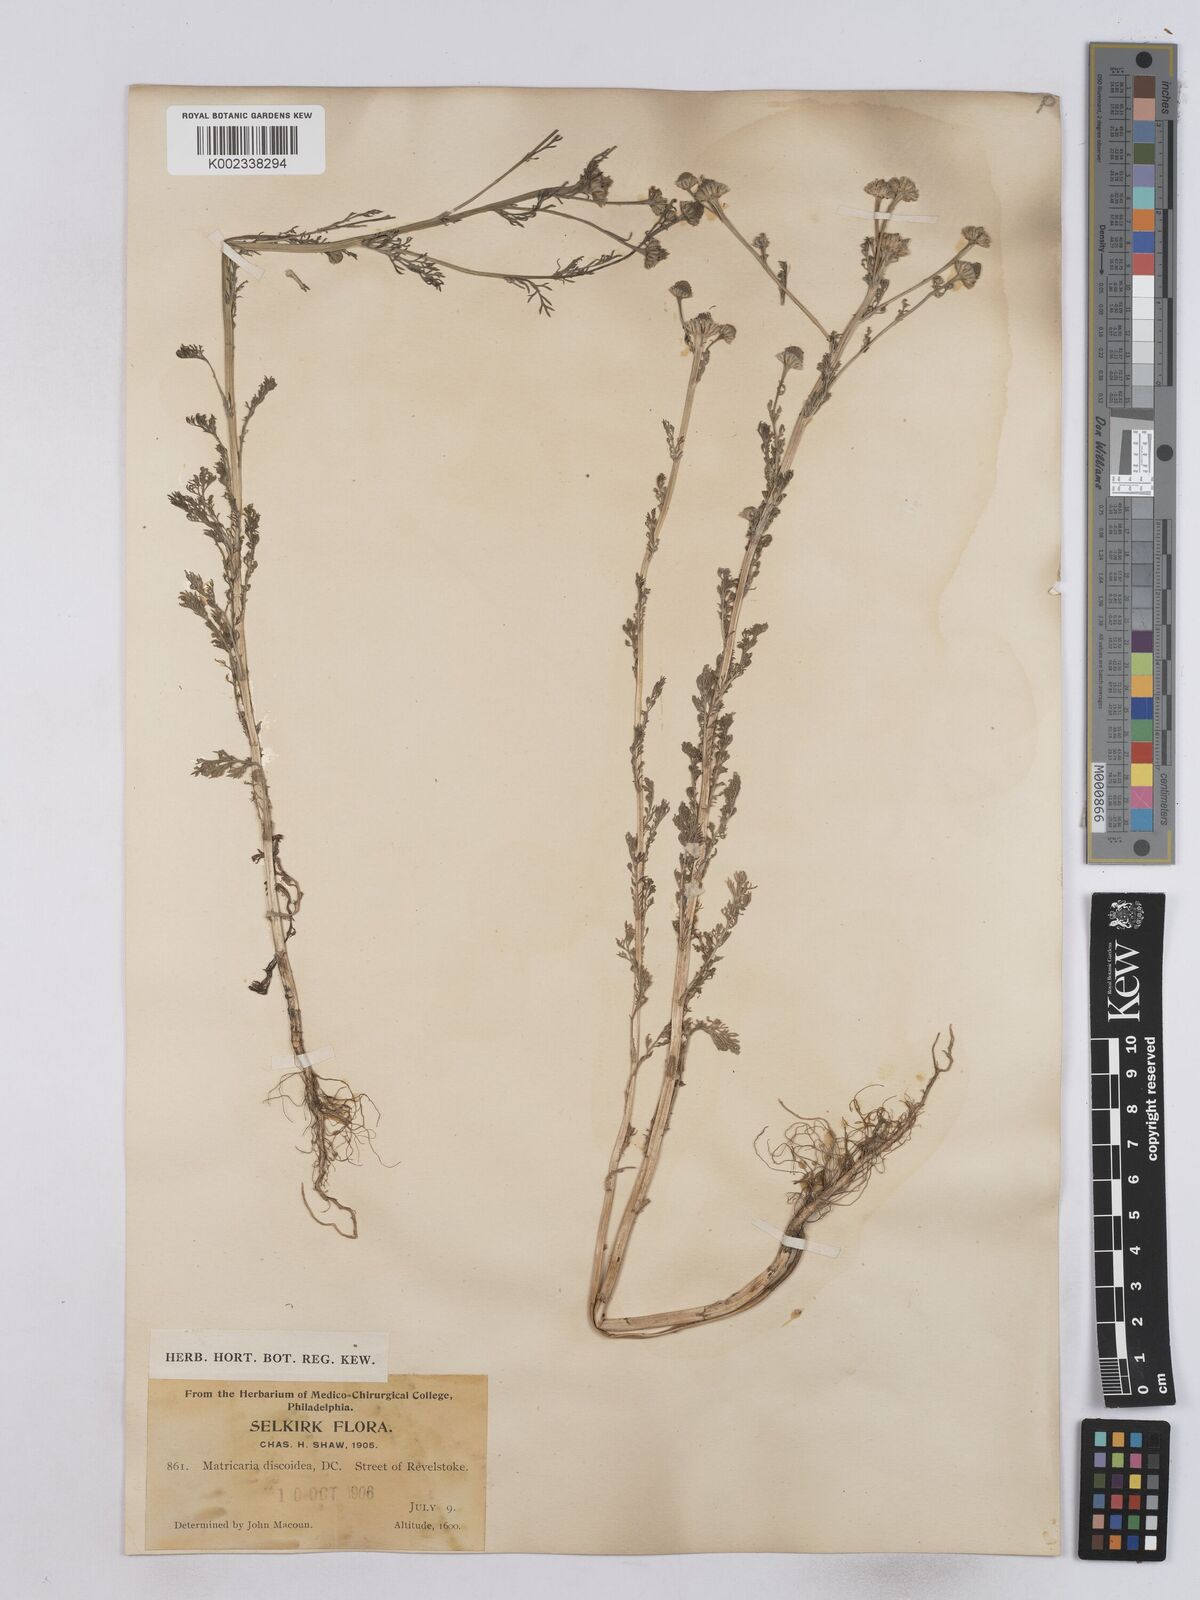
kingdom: Plantae
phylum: Tracheophyta
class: Magnoliopsida
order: Asterales
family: Asteraceae
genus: Matricaria
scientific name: Matricaria discoidea
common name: Disc mayweed
